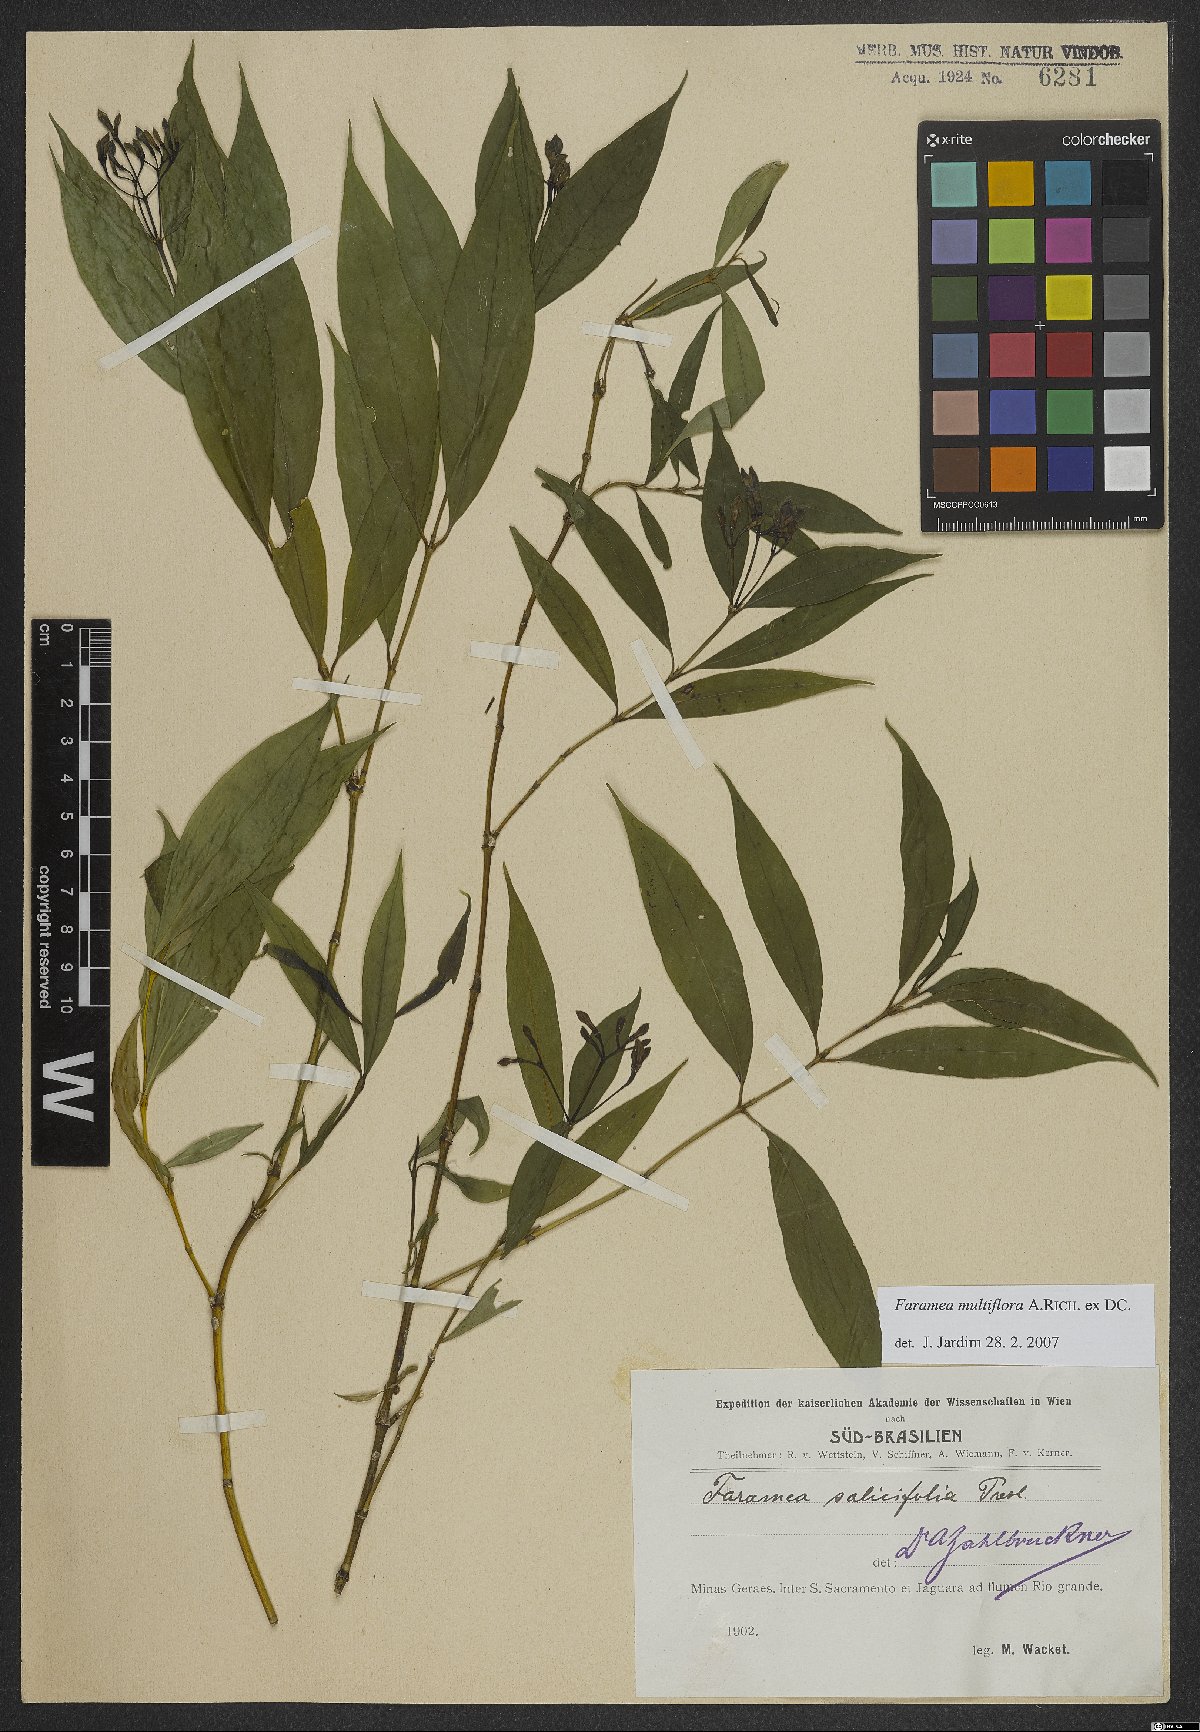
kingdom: Plantae
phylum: Tracheophyta
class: Magnoliopsida
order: Gentianales
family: Rubiaceae
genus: Faramea
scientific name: Faramea multiflora
